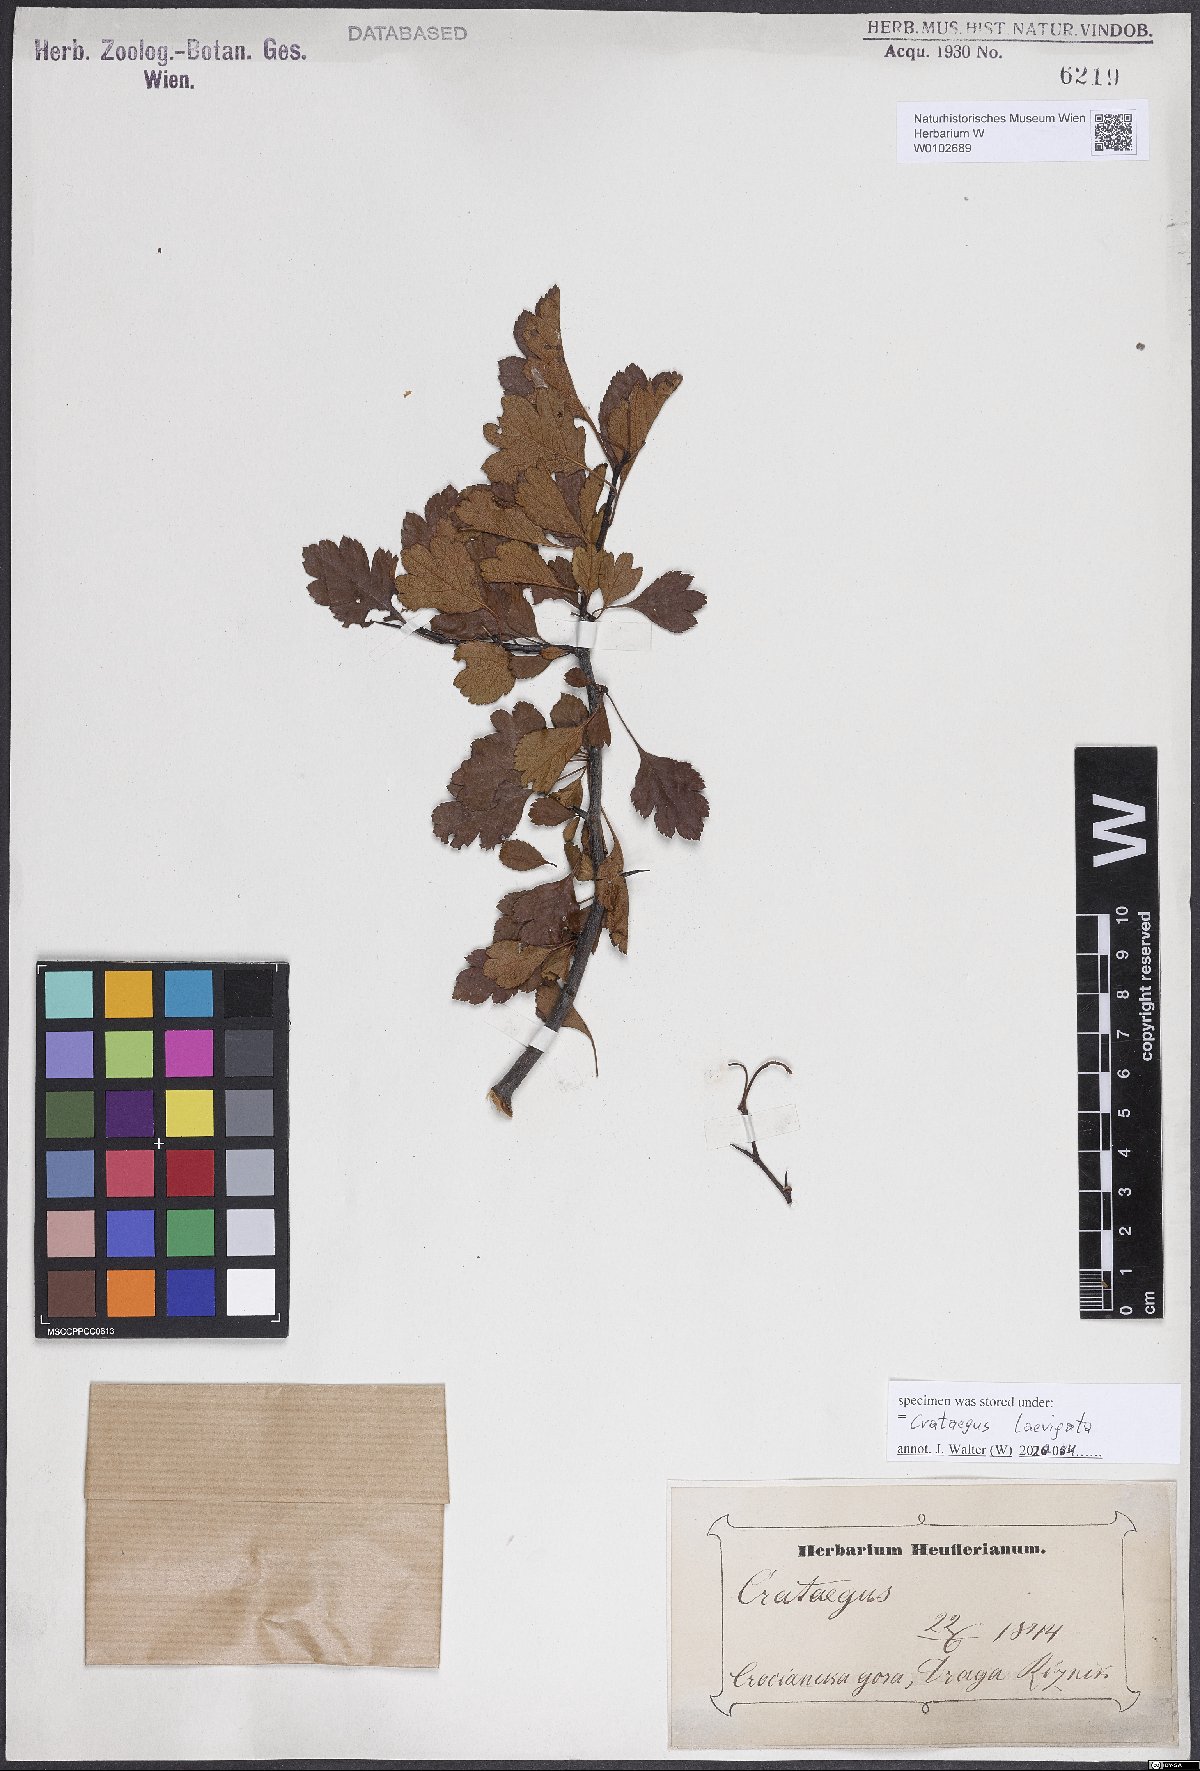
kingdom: Plantae
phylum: Tracheophyta
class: Magnoliopsida
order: Rosales
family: Rosaceae
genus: Crataegus
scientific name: Crataegus laevigata
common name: Midland hawthorn
